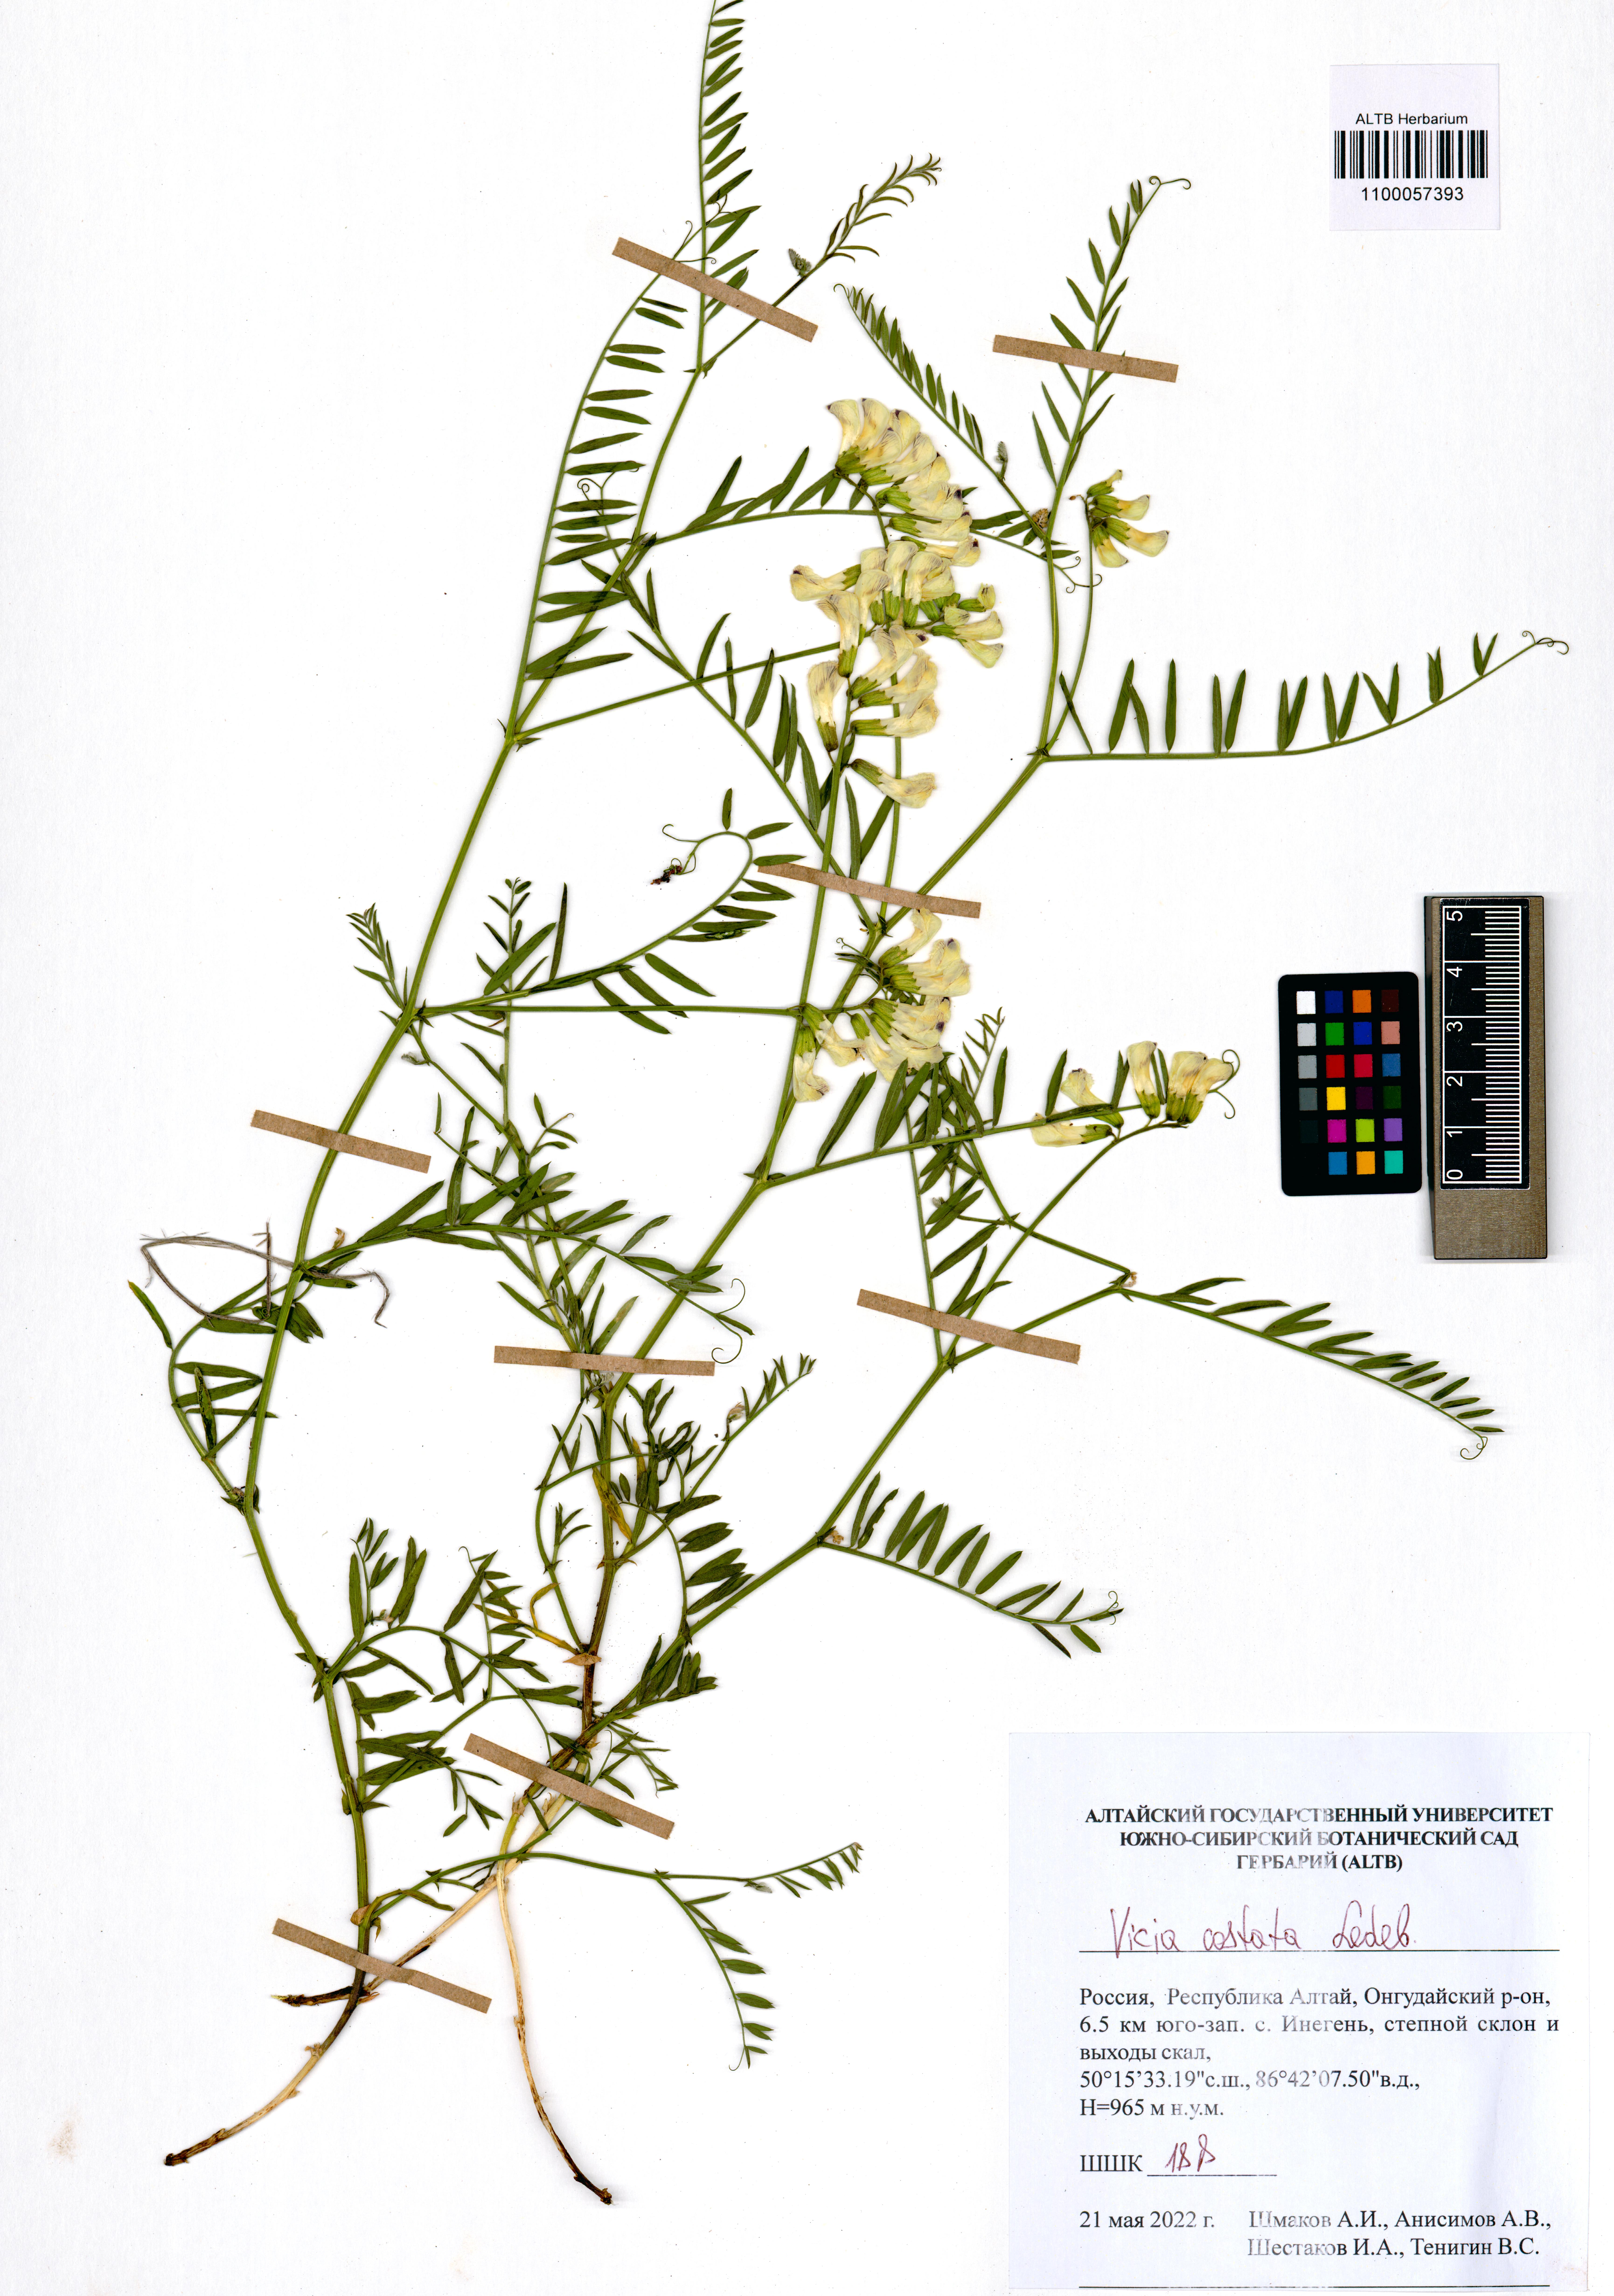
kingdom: Plantae
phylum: Tracheophyta
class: Magnoliopsida
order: Fabales
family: Fabaceae
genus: Vicia
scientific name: Vicia costata
